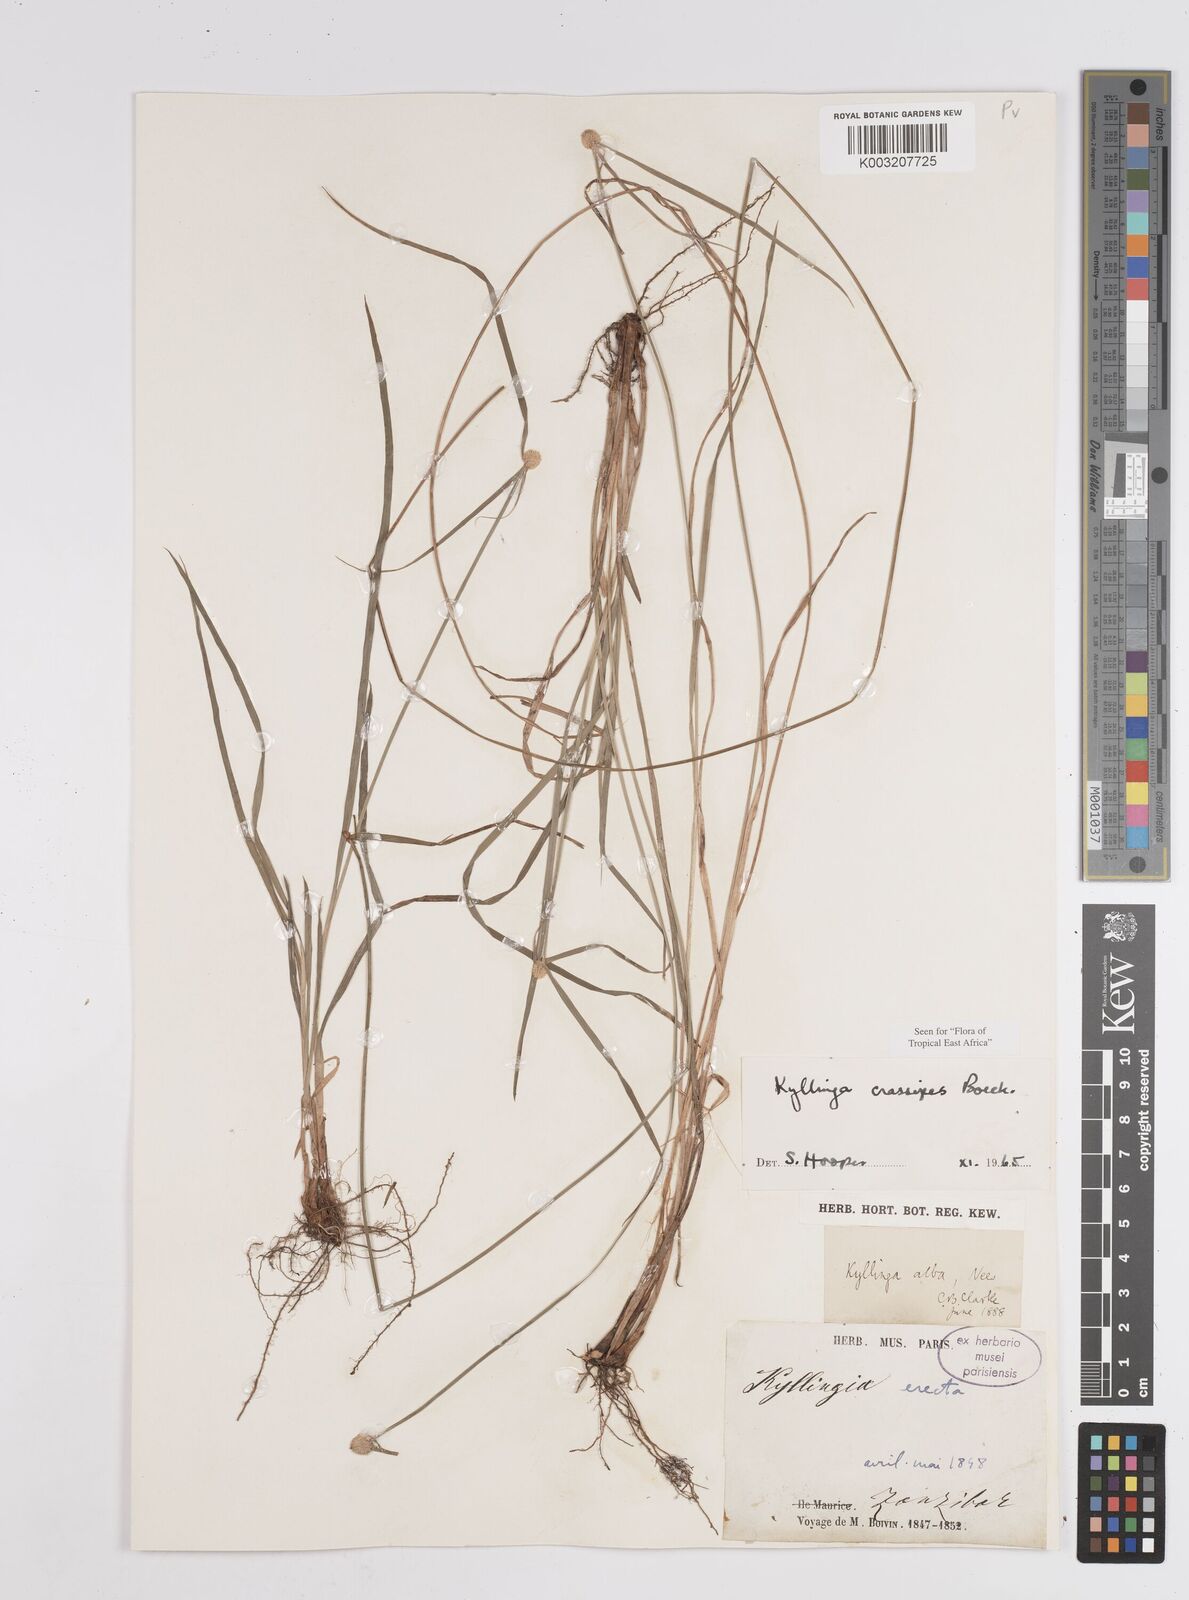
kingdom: Plantae
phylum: Tracheophyta
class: Liliopsida
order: Poales
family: Cyperaceae
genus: Cyperus
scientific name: Cyperus
